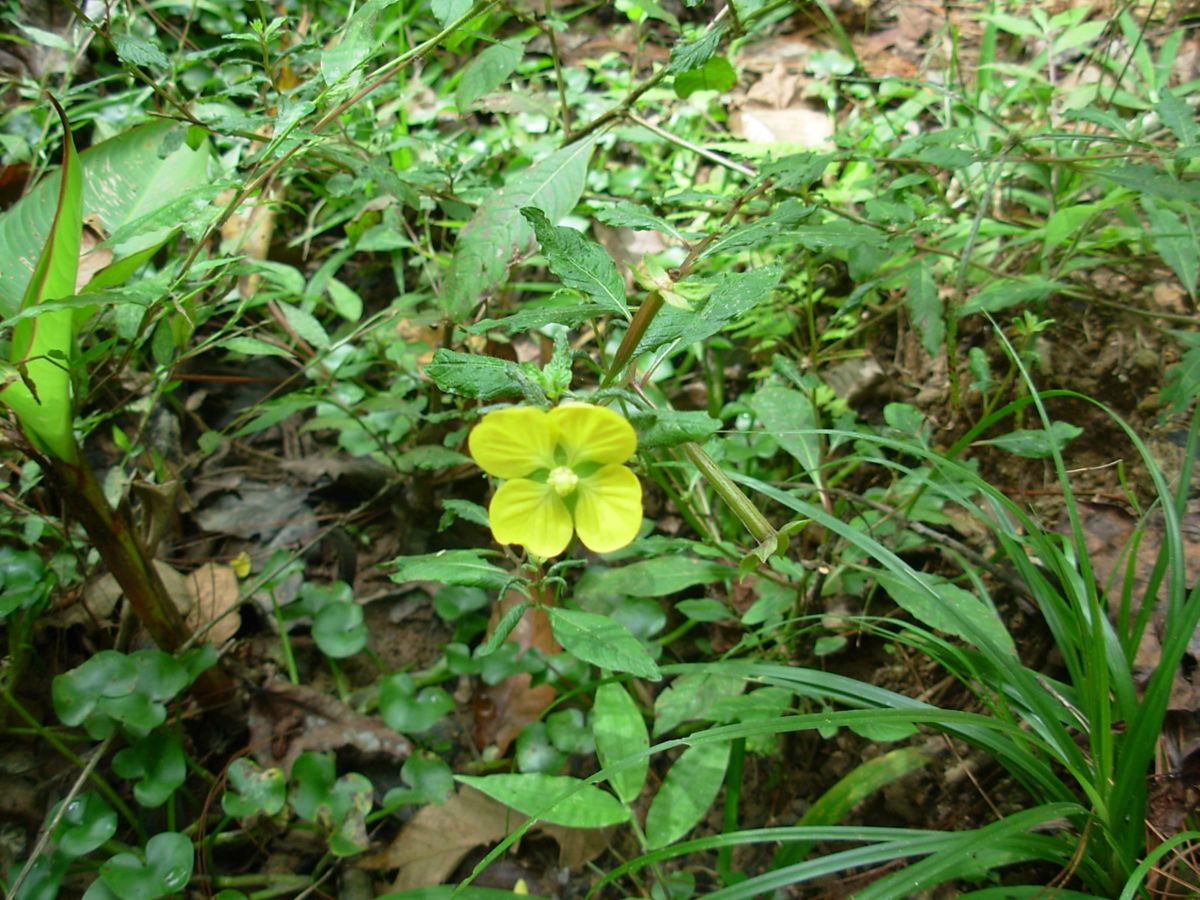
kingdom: Plantae
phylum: Tracheophyta
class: Magnoliopsida
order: Myrtales
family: Onagraceae
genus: Ludwigia
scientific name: Ludwigia octovalvis
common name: Water-primrose
